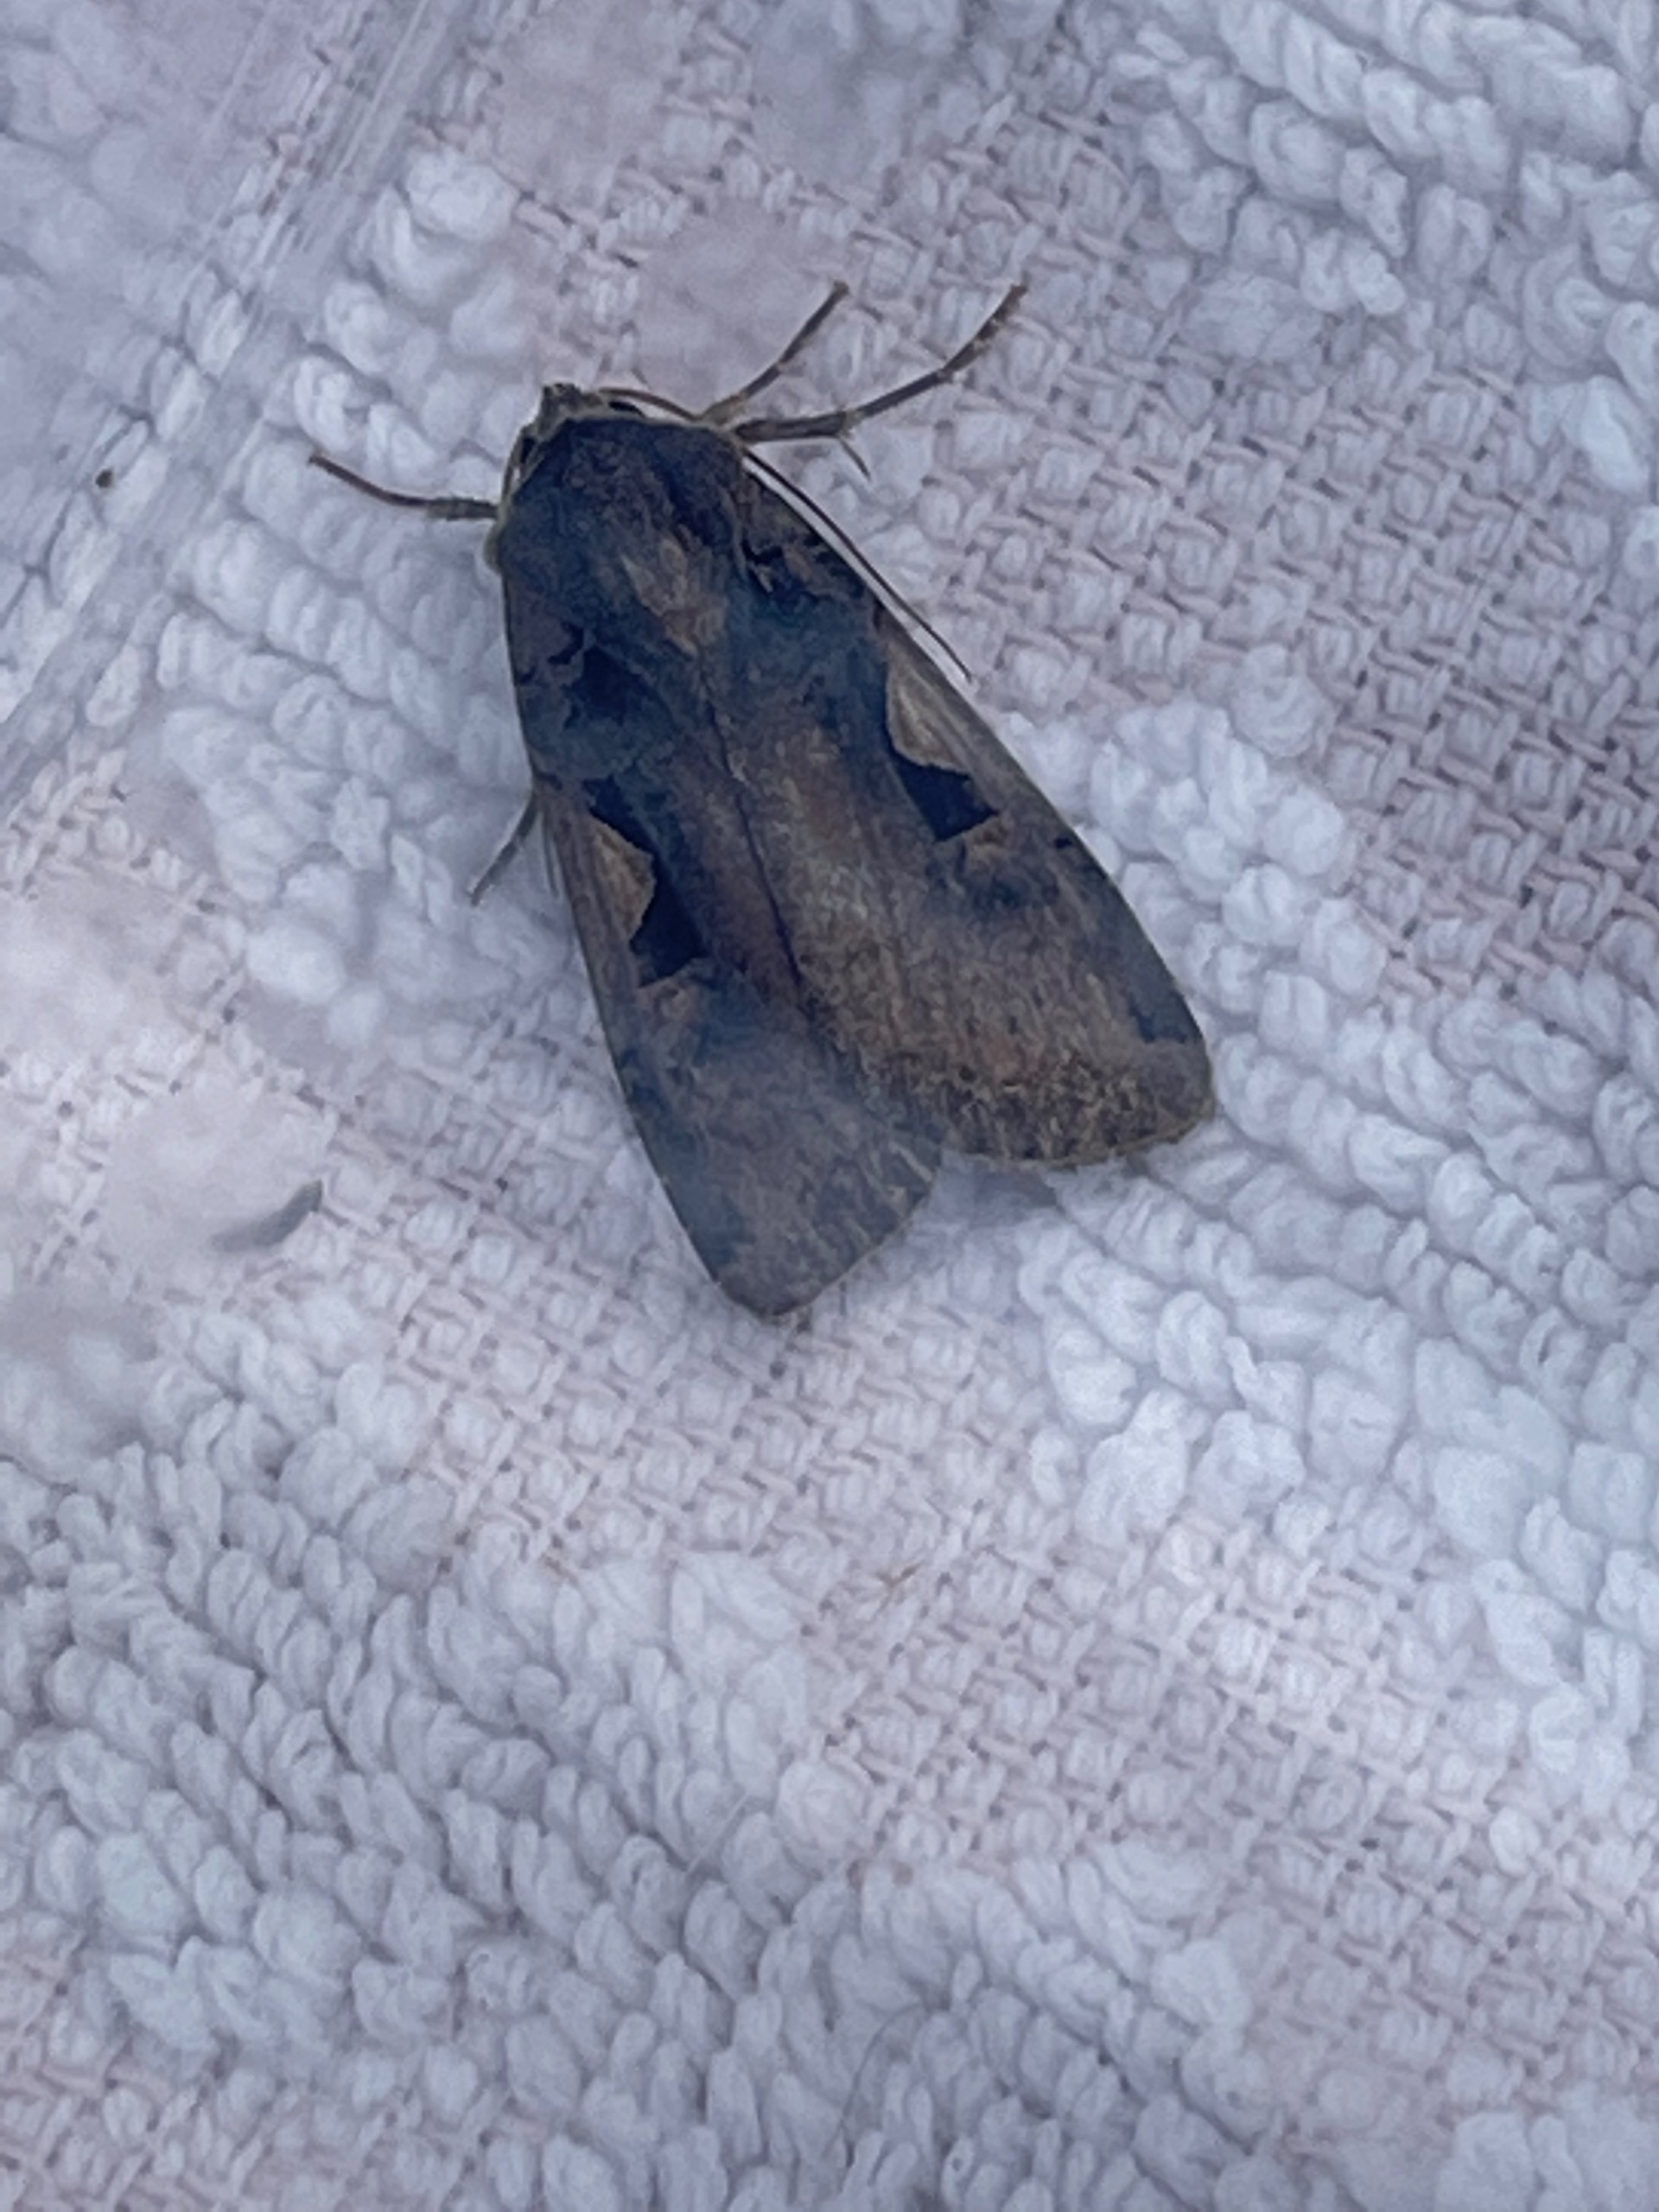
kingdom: Animalia
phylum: Arthropoda
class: Insecta
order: Lepidoptera
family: Noctuidae
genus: Xestia
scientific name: Xestia c-nigrum
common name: Det sorte c
